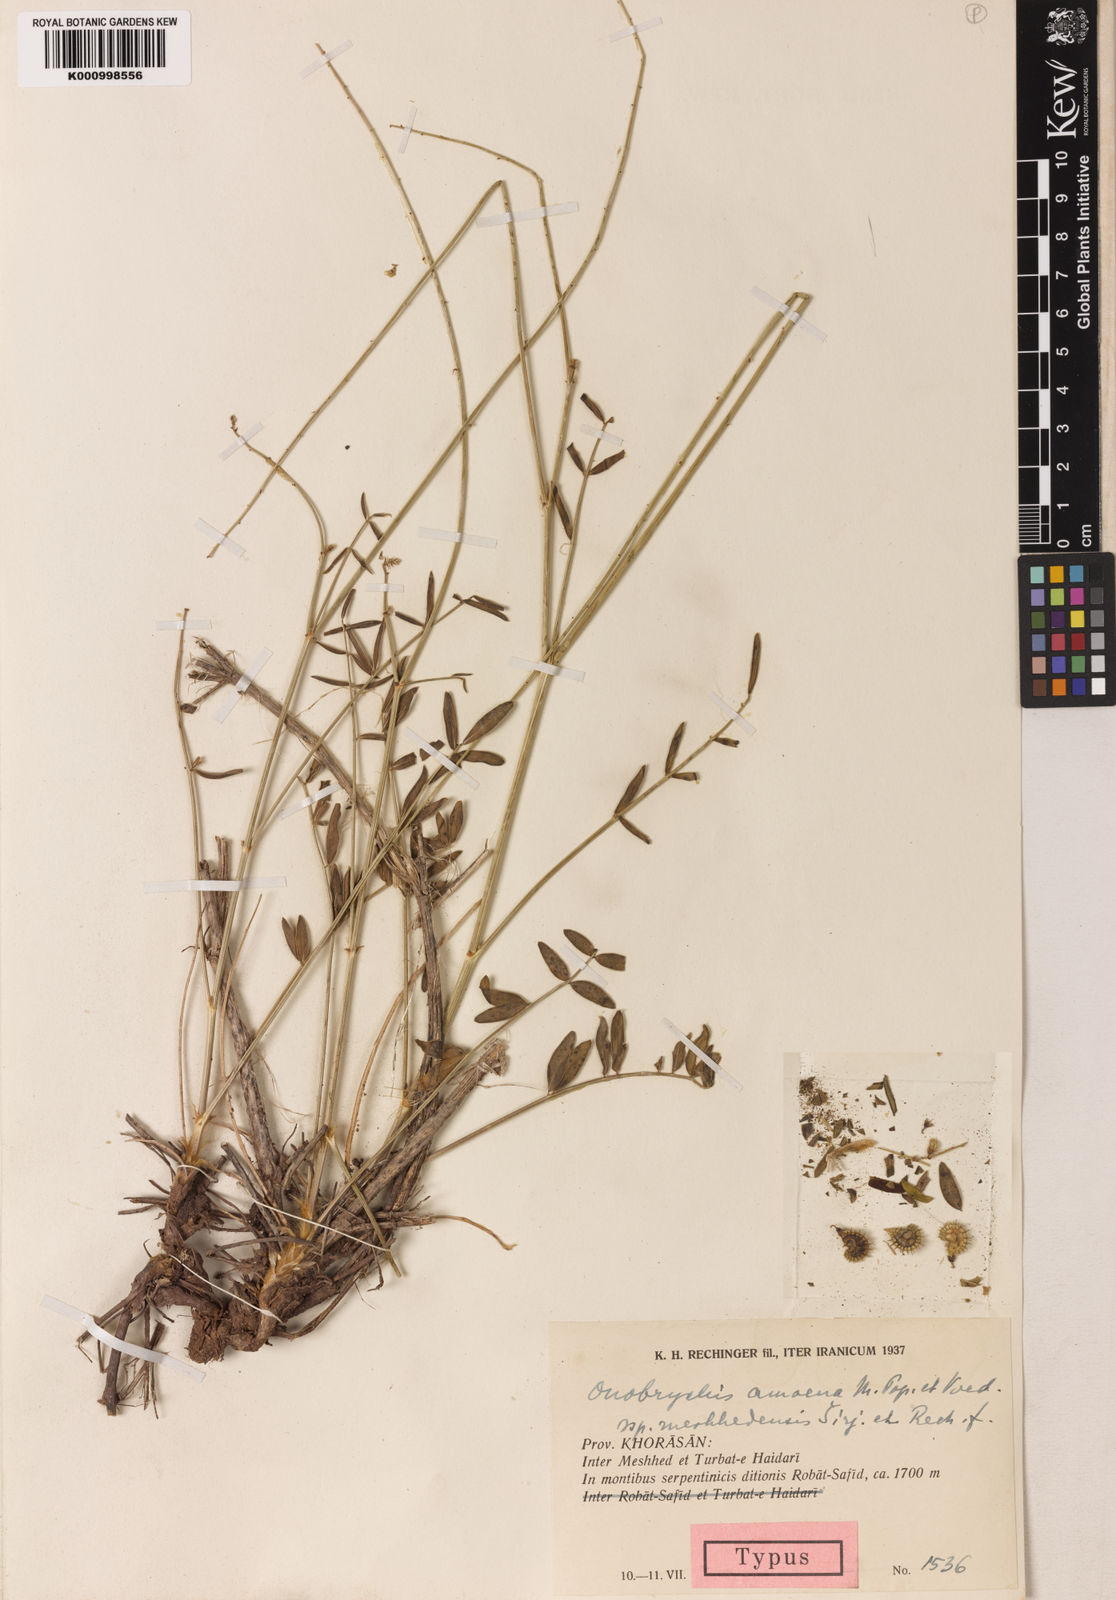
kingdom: Plantae
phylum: Tracheophyta
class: Magnoliopsida
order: Fabales
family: Fabaceae
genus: Onobrychis
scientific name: Onobrychis meshhedensis
